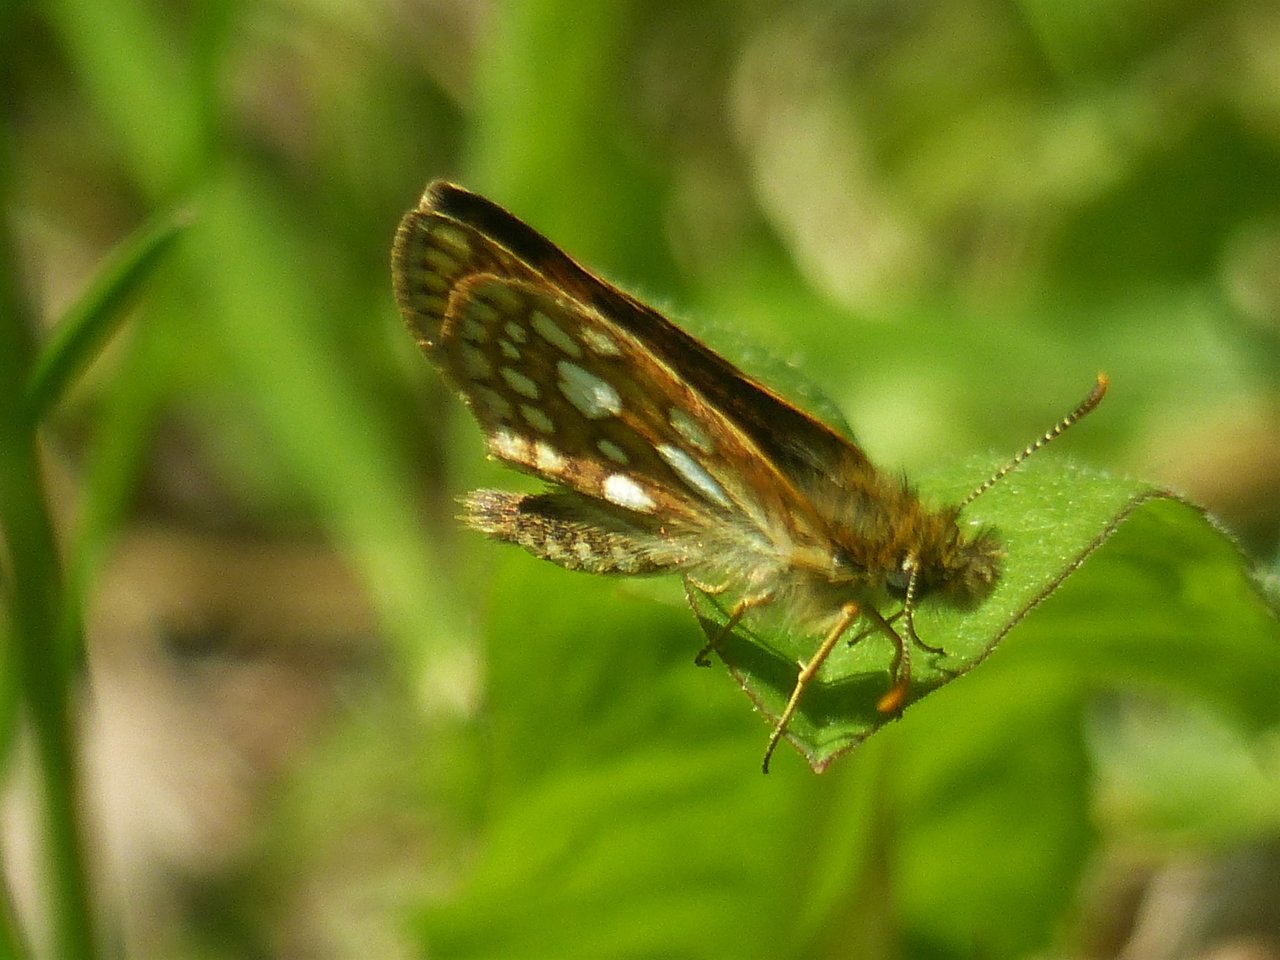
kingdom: Animalia
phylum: Arthropoda
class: Insecta
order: Lepidoptera
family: Hesperiidae
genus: Carterocephalus
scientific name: Carterocephalus palaemon
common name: Chequered Skipper
